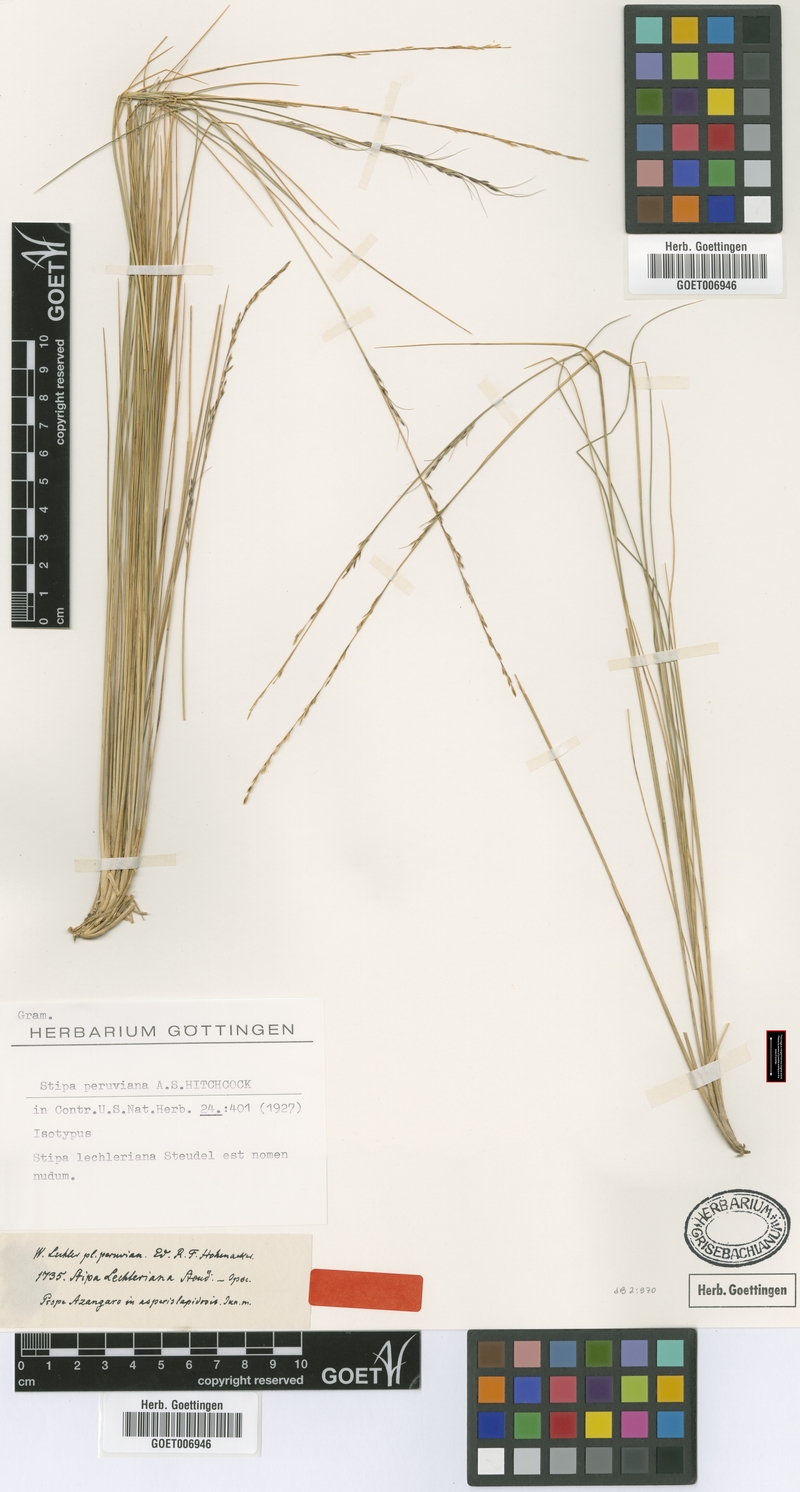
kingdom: Plantae
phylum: Tracheophyta
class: Liliopsida
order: Poales
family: Poaceae
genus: Stipa
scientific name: Stipa rigidiseta
